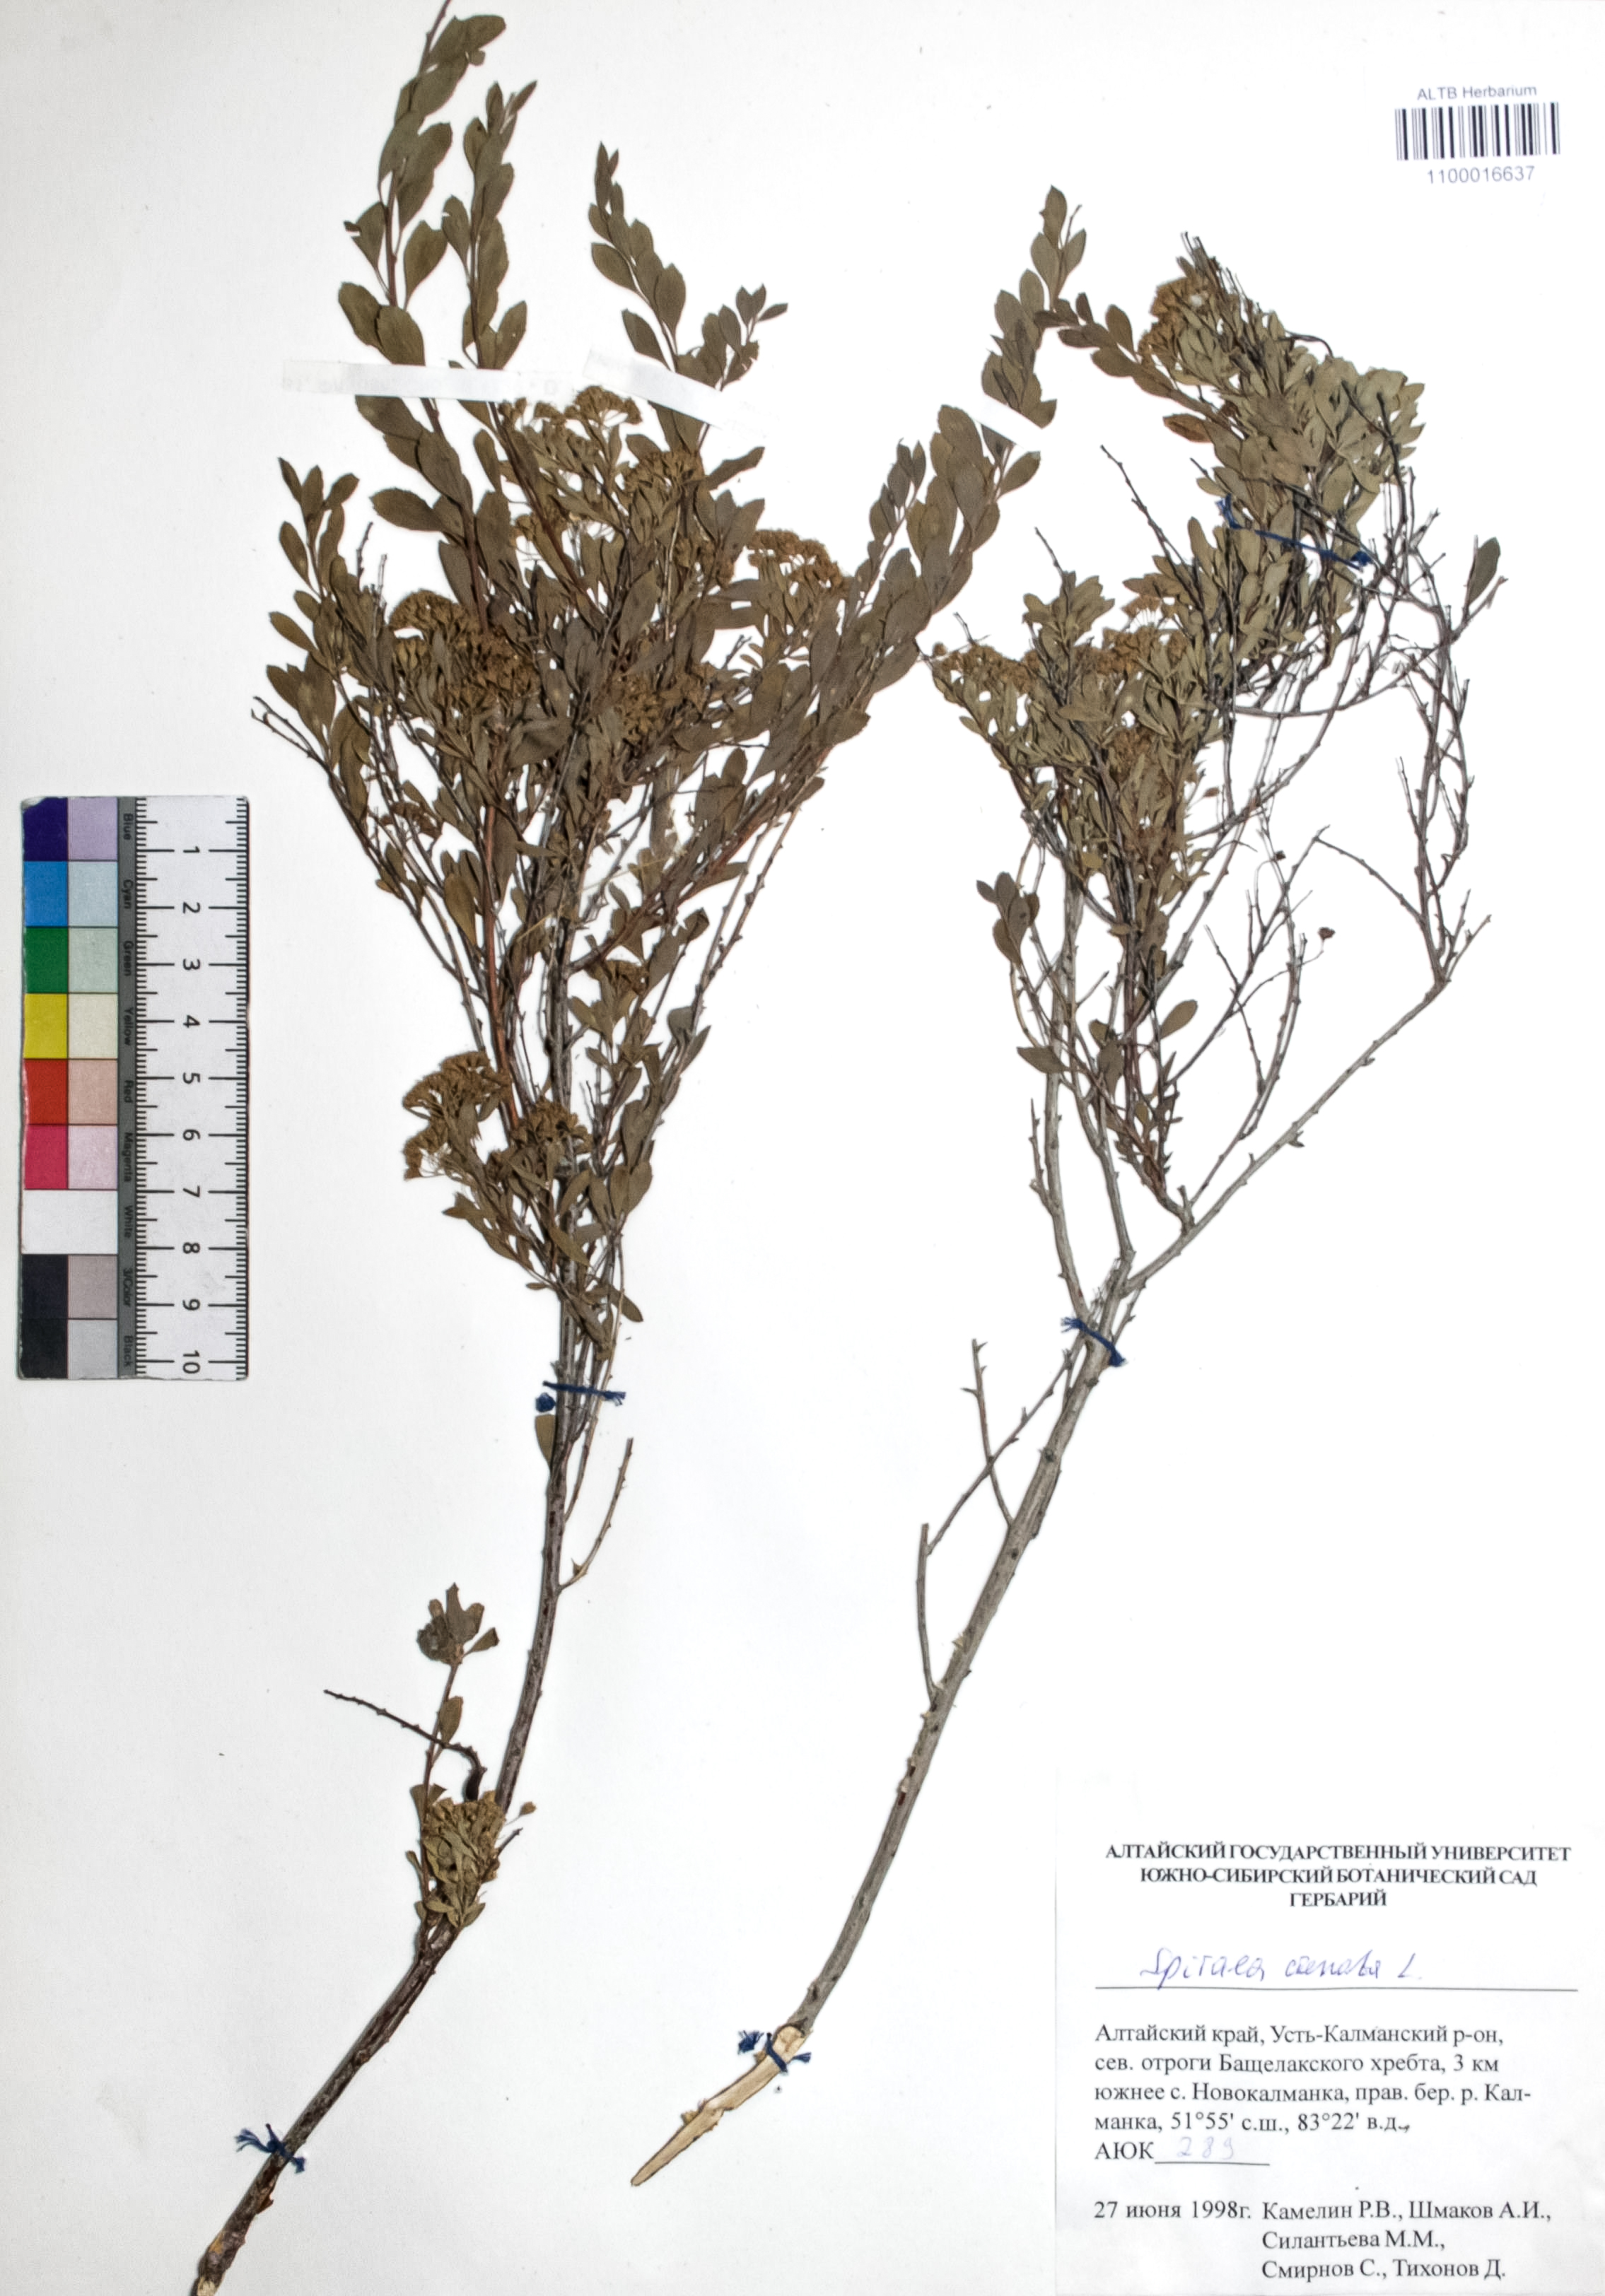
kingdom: Plantae
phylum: Tracheophyta
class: Magnoliopsida
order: Rosales
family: Rosaceae
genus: Spiraea
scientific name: Spiraea crenata
